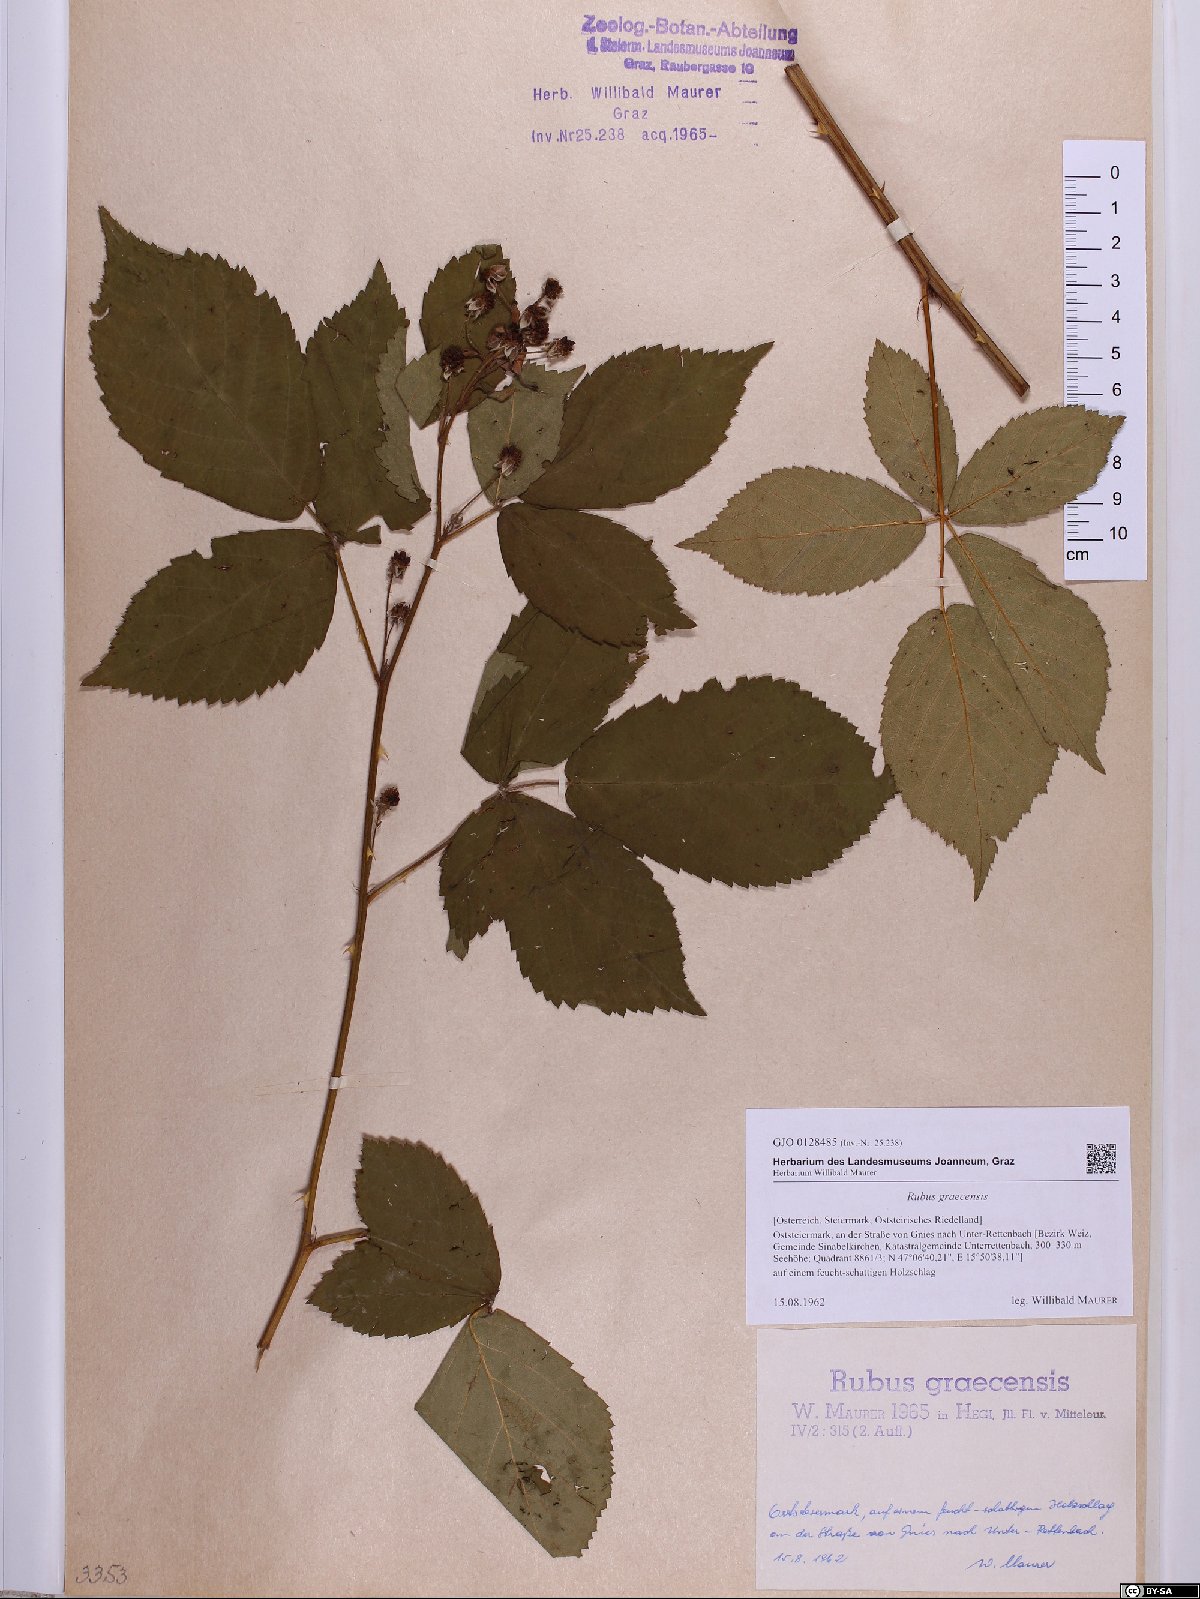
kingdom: Plantae
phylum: Tracheophyta
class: Magnoliopsida
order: Rosales
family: Rosaceae
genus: Rubus
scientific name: Rubus graecensis
